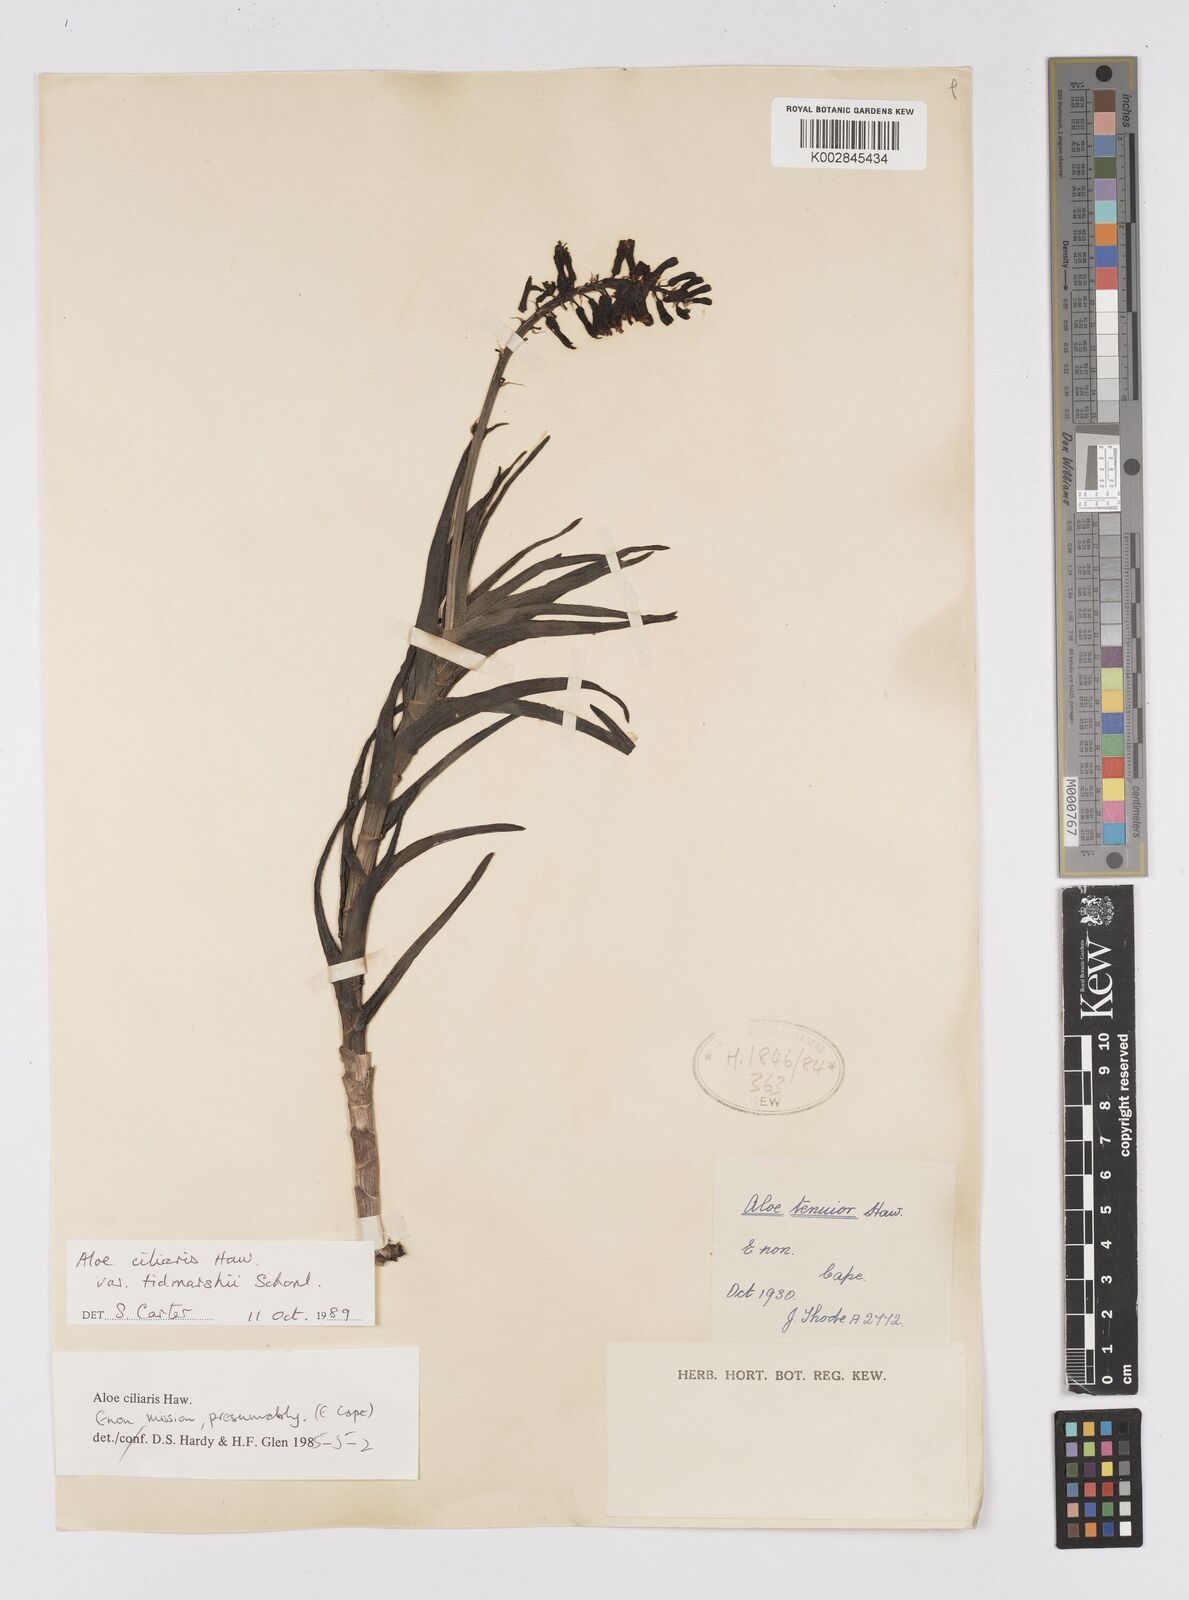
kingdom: Plantae
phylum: Tracheophyta
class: Liliopsida
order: Asparagales
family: Asphodelaceae
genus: Aloiampelos
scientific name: Aloiampelos ciliaris
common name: Climbing aloe
